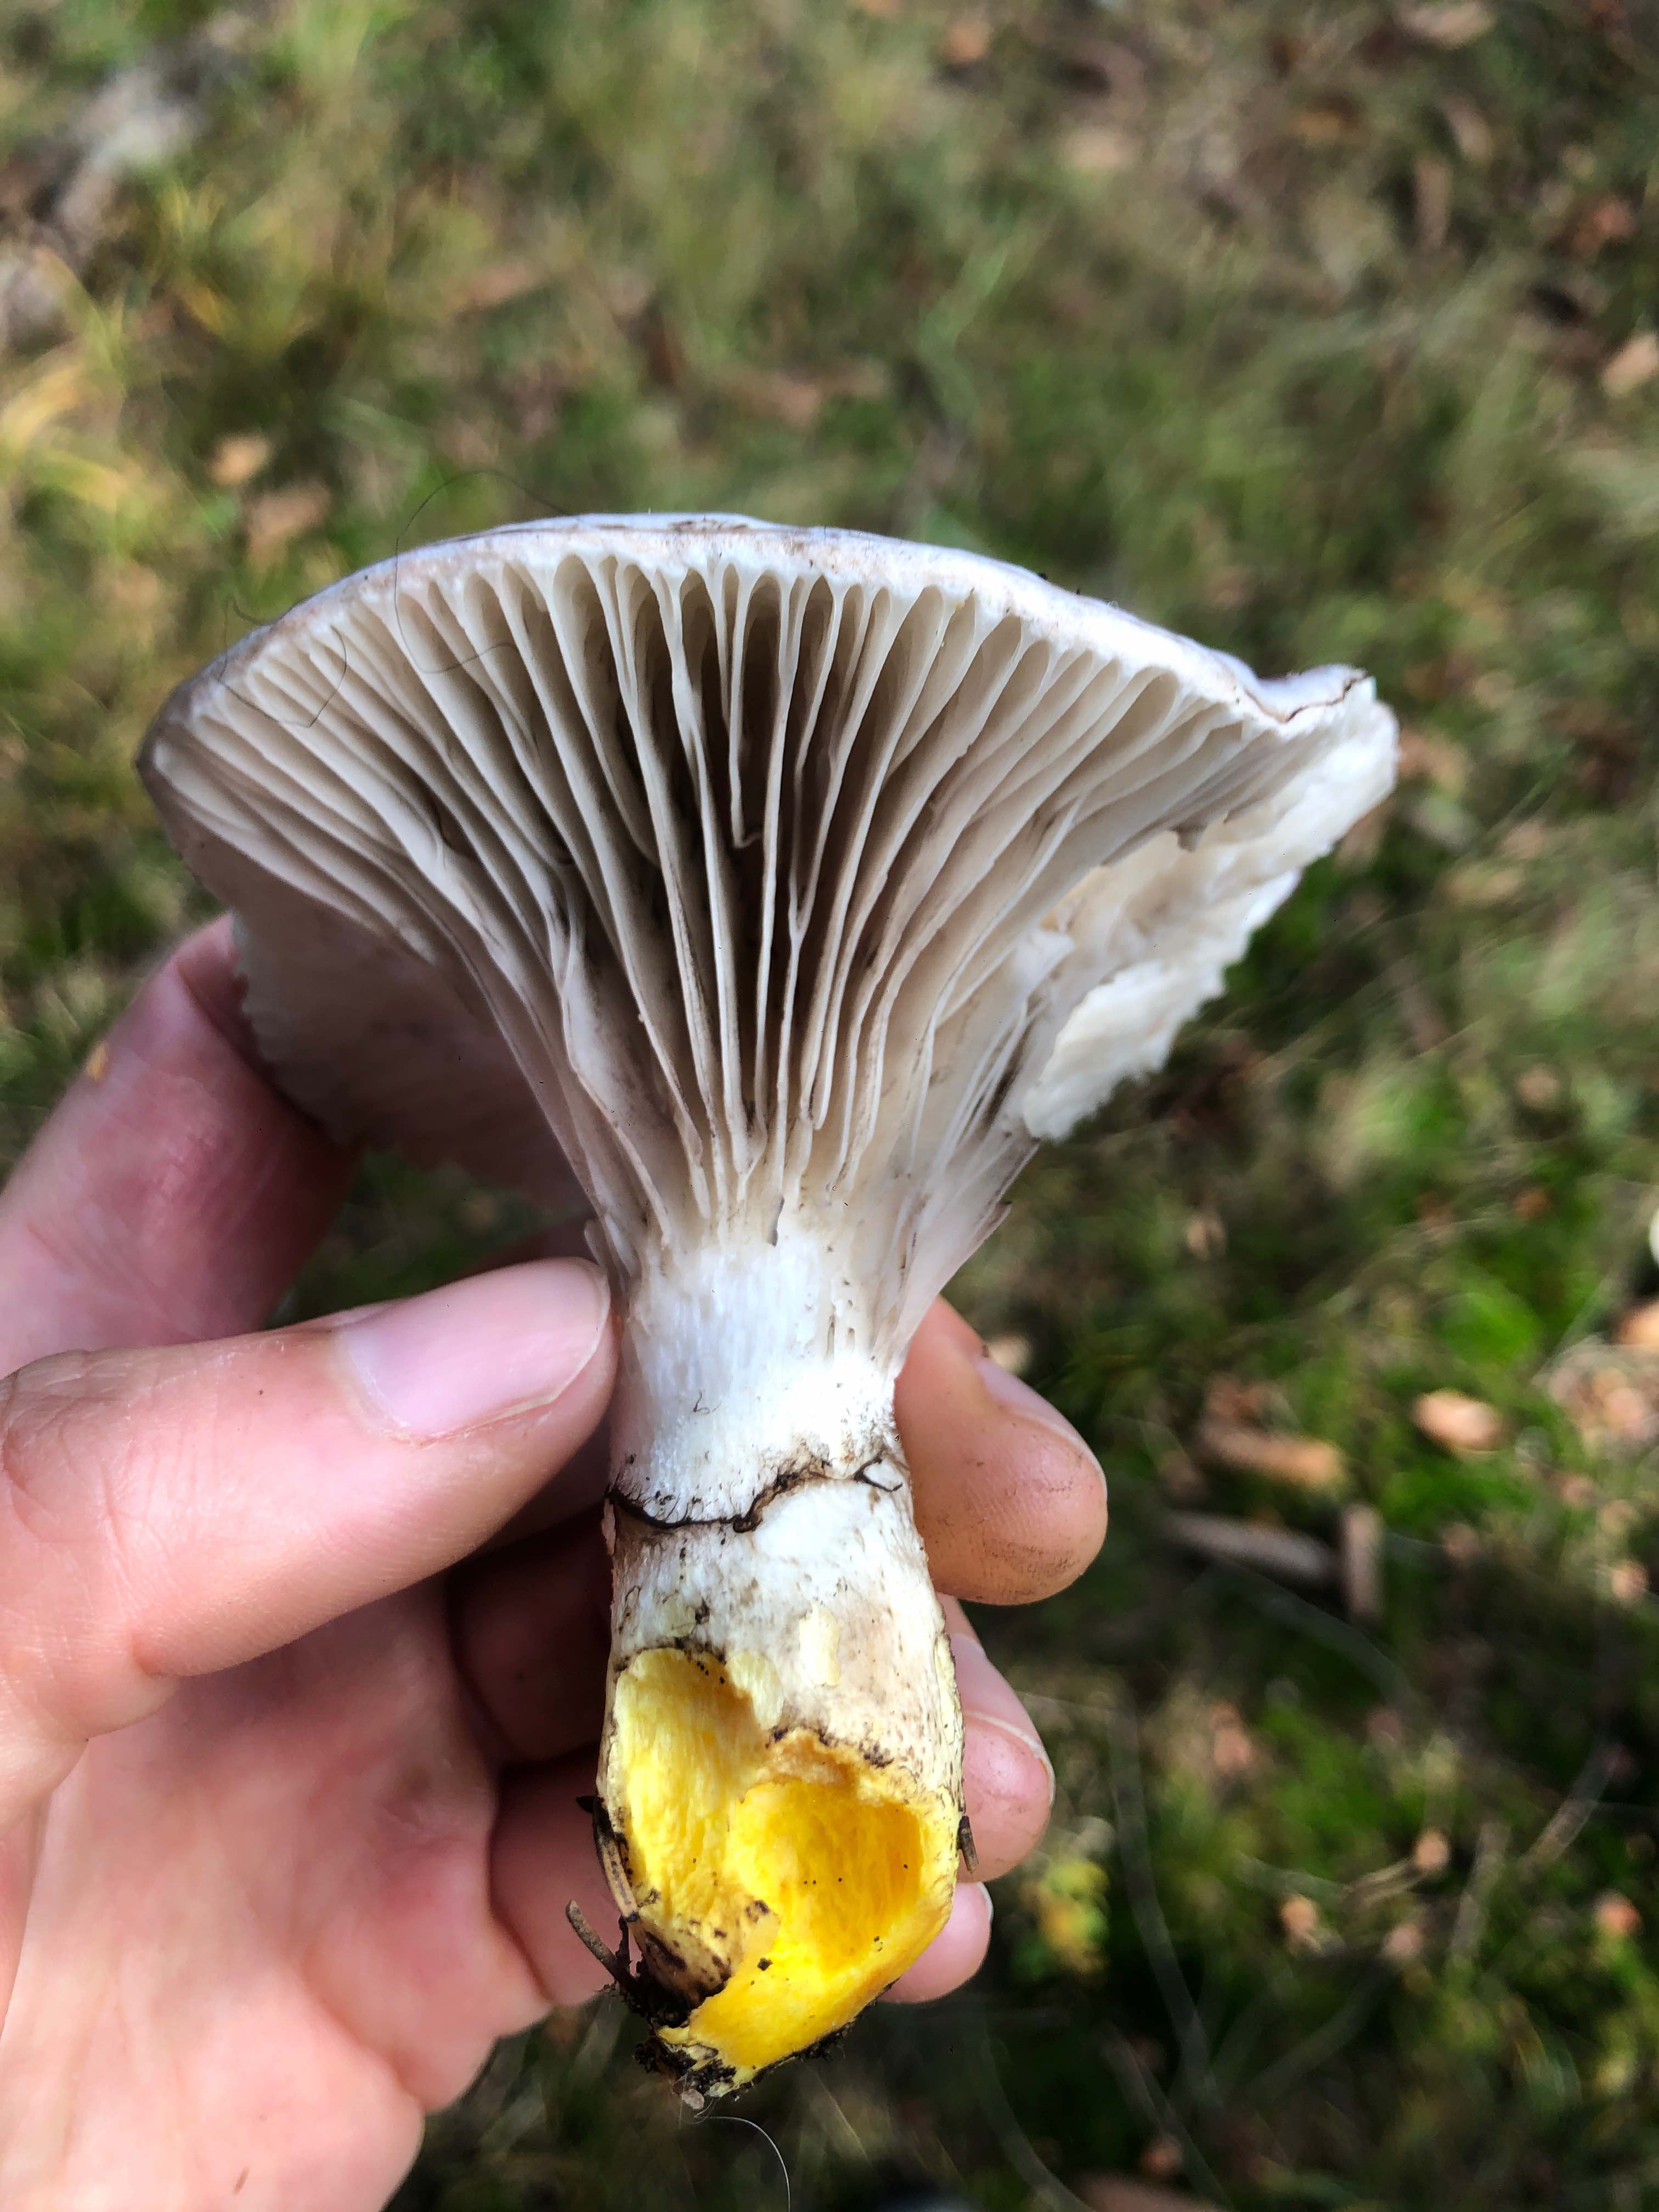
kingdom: Fungi
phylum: Basidiomycota
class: Agaricomycetes
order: Boletales
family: Gomphidiaceae
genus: Gomphidius
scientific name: Gomphidius glutinosus
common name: grå slimslør
